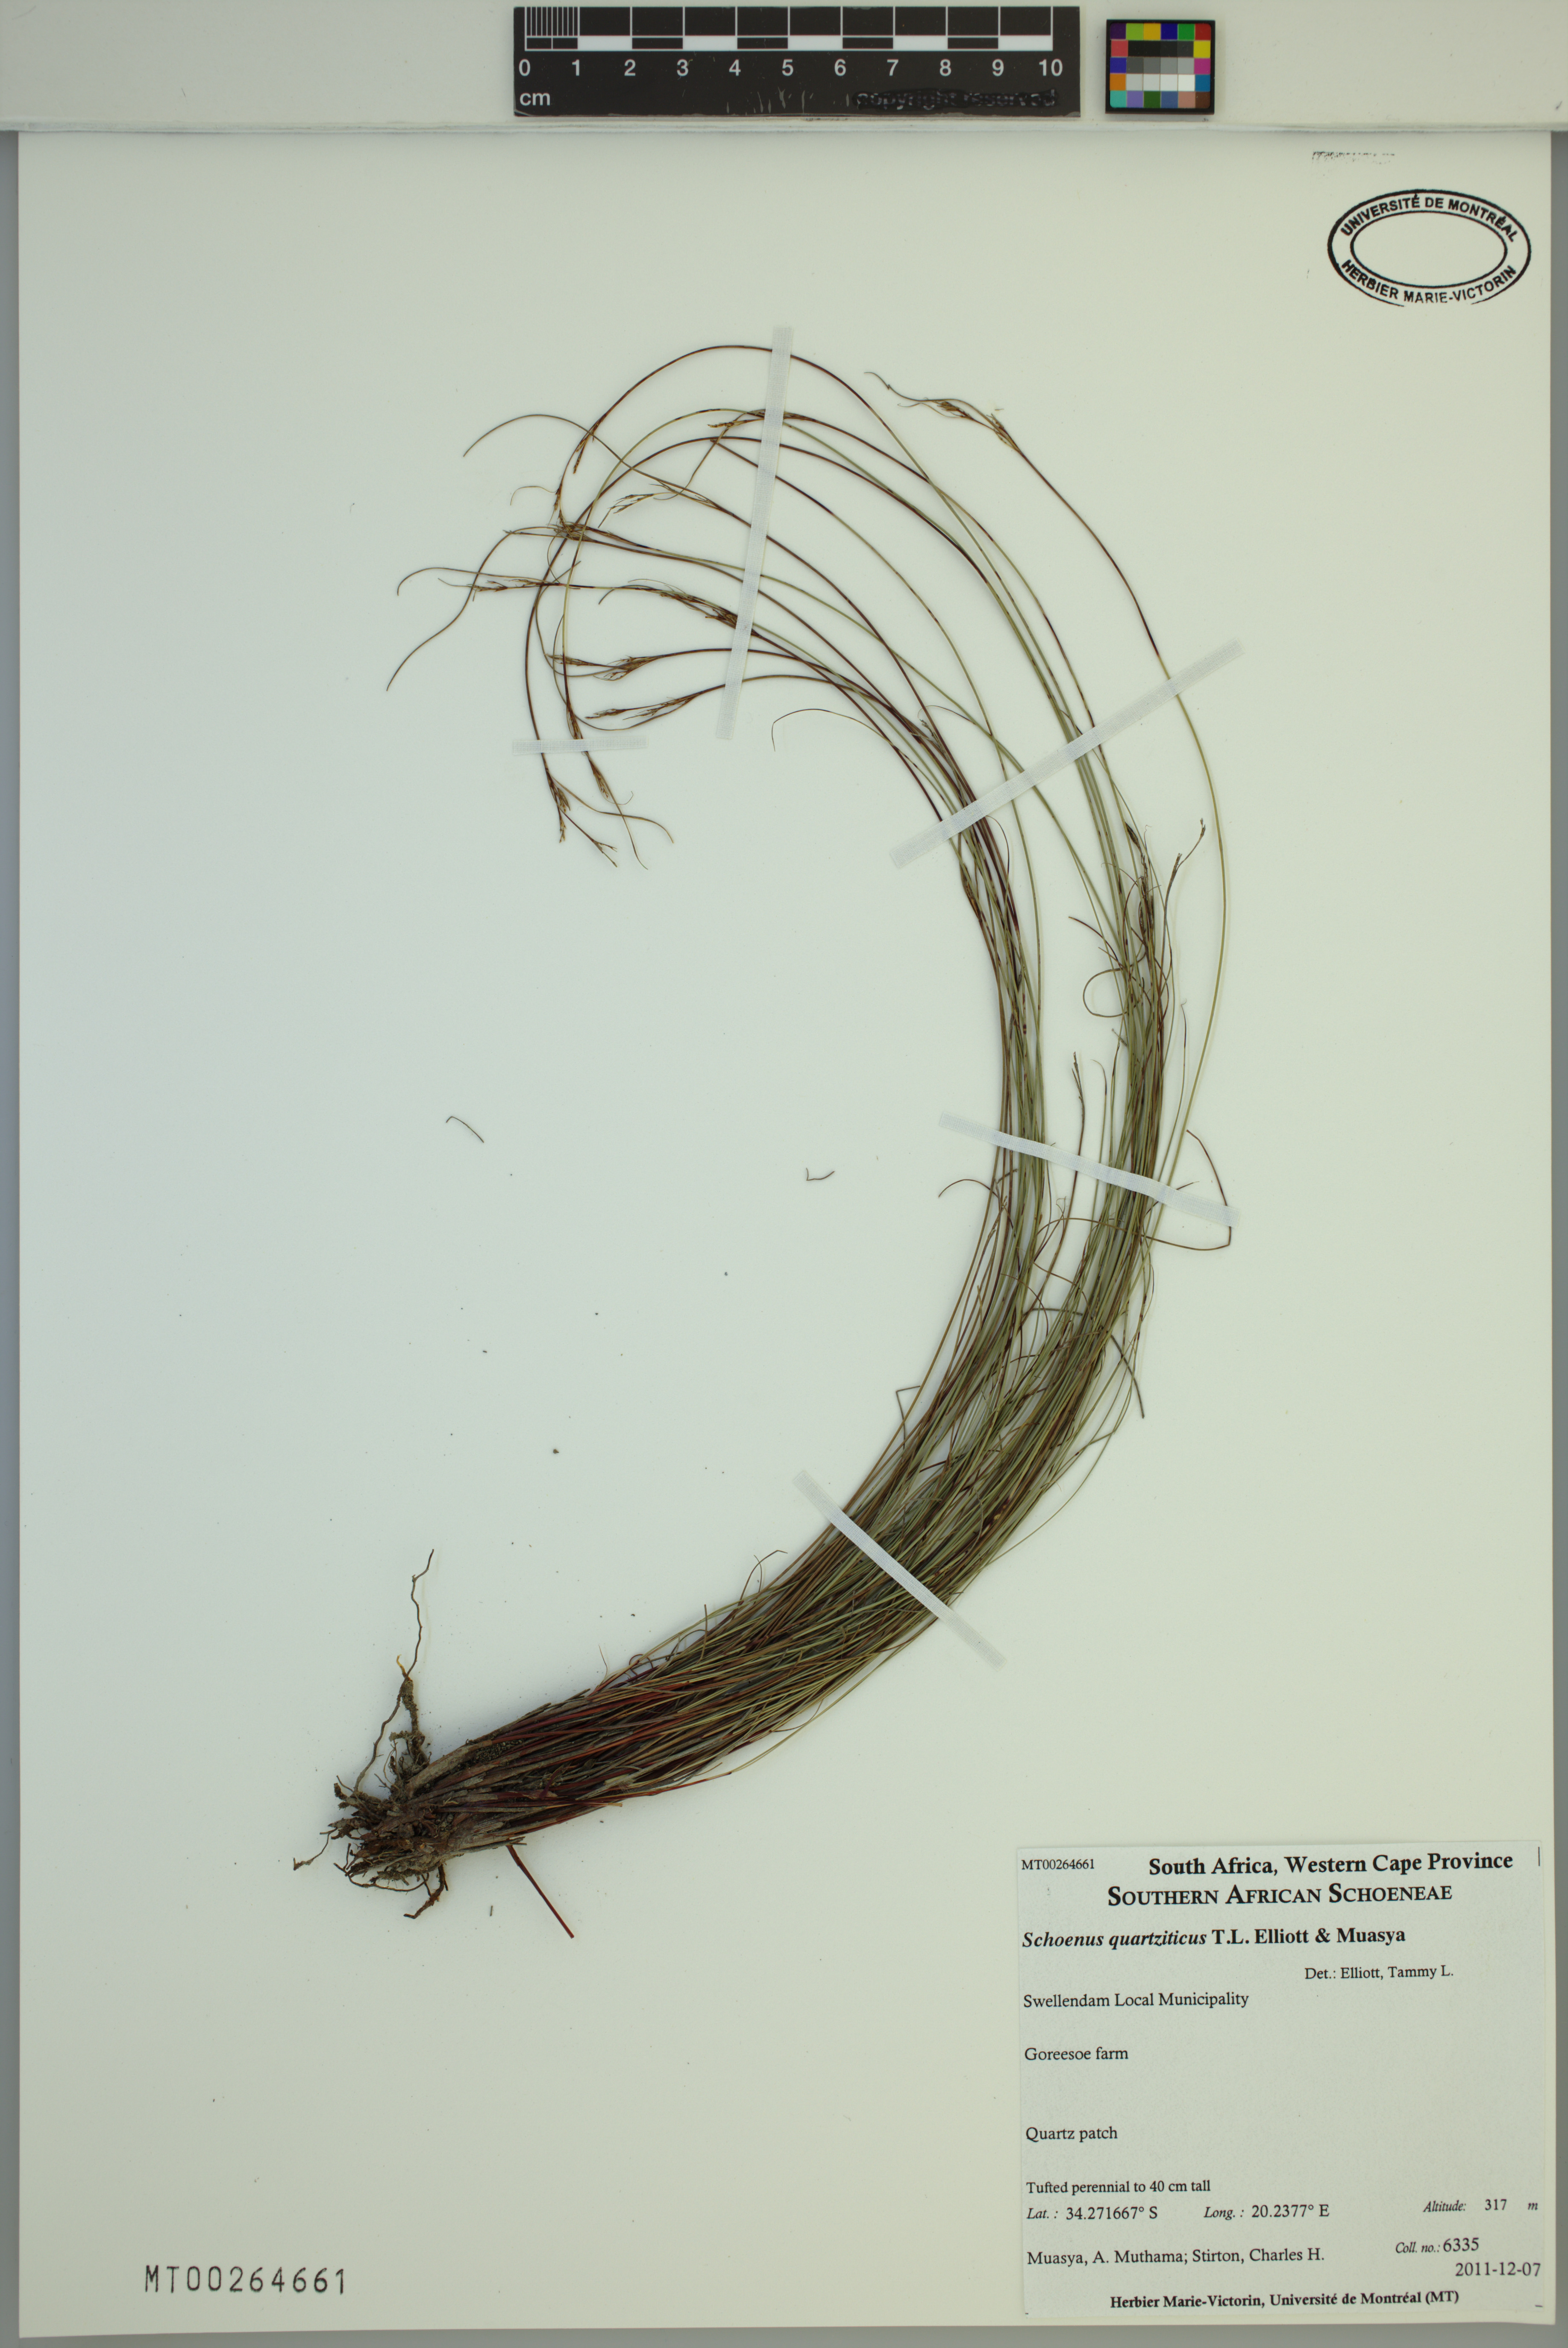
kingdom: Plantae
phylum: Tracheophyta
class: Liliopsida
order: Poales
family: Cyperaceae
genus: Schoenus
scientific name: Schoenus quartziticus
